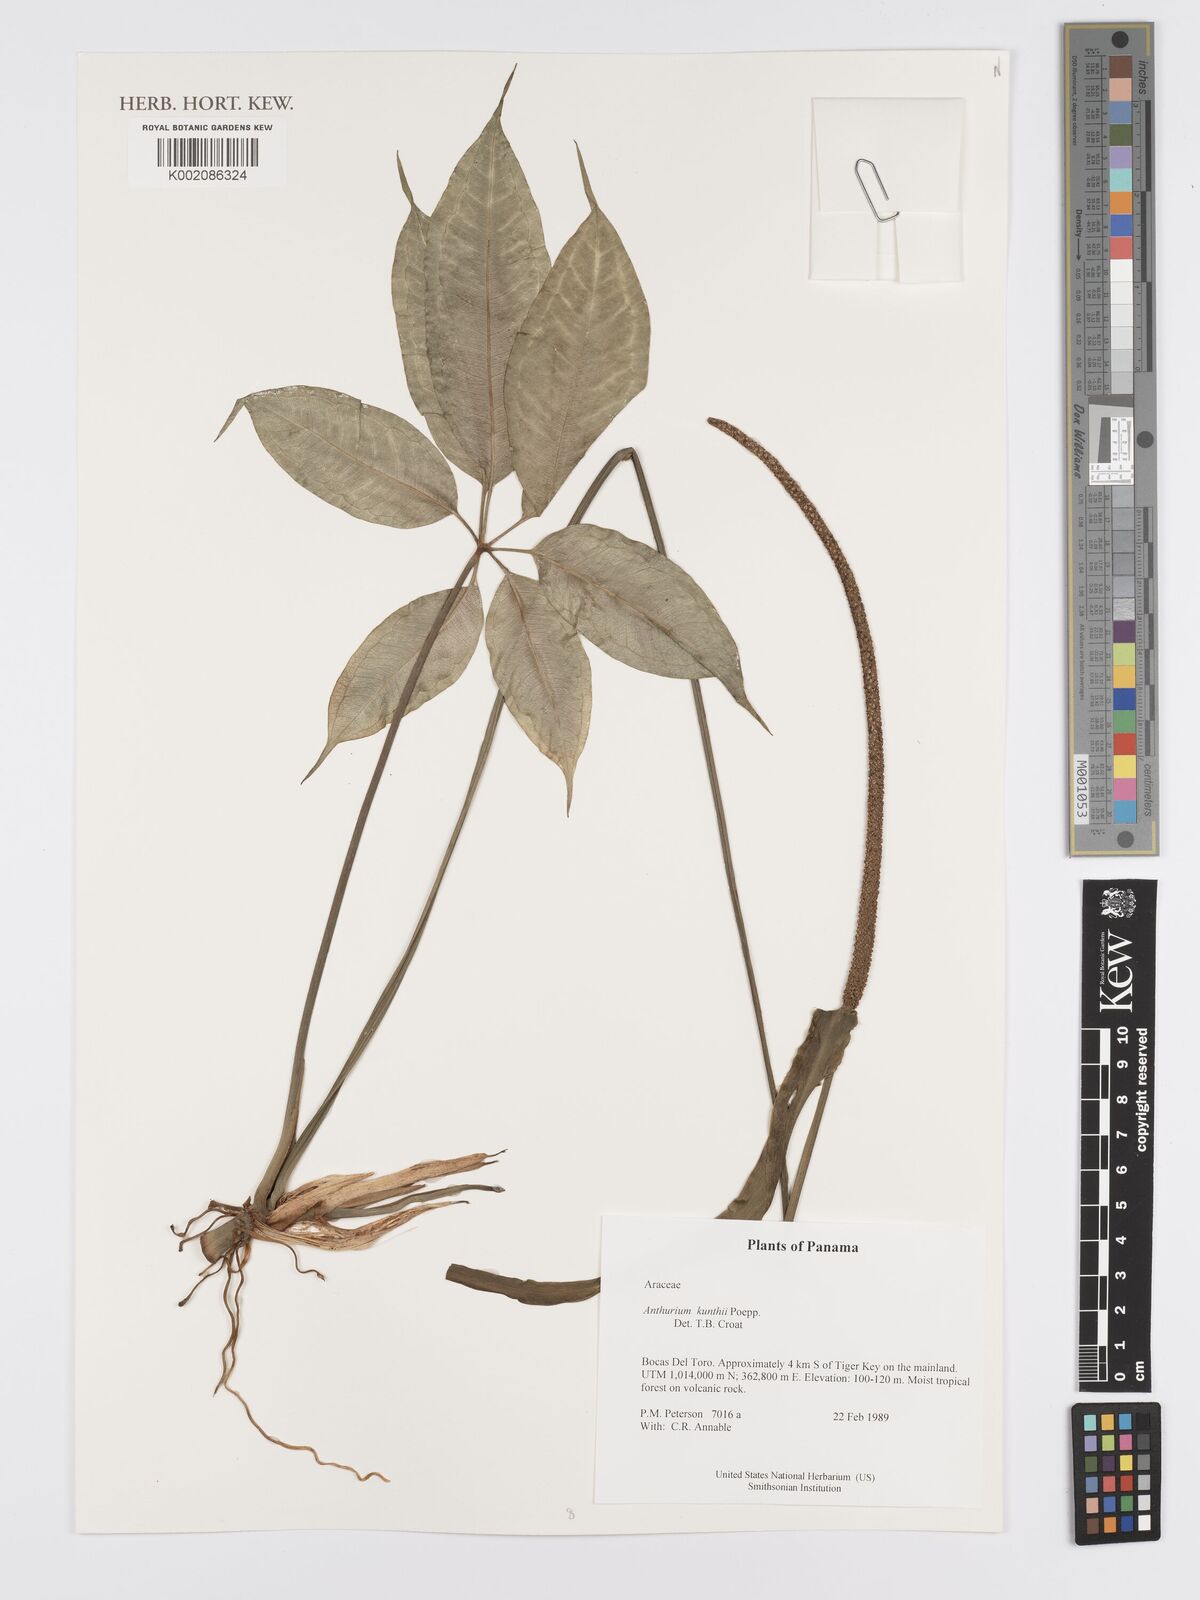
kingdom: Plantae
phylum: Tracheophyta
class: Liliopsida
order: Alismatales
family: Araceae
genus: Anthurium
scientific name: Anthurium kunthii
